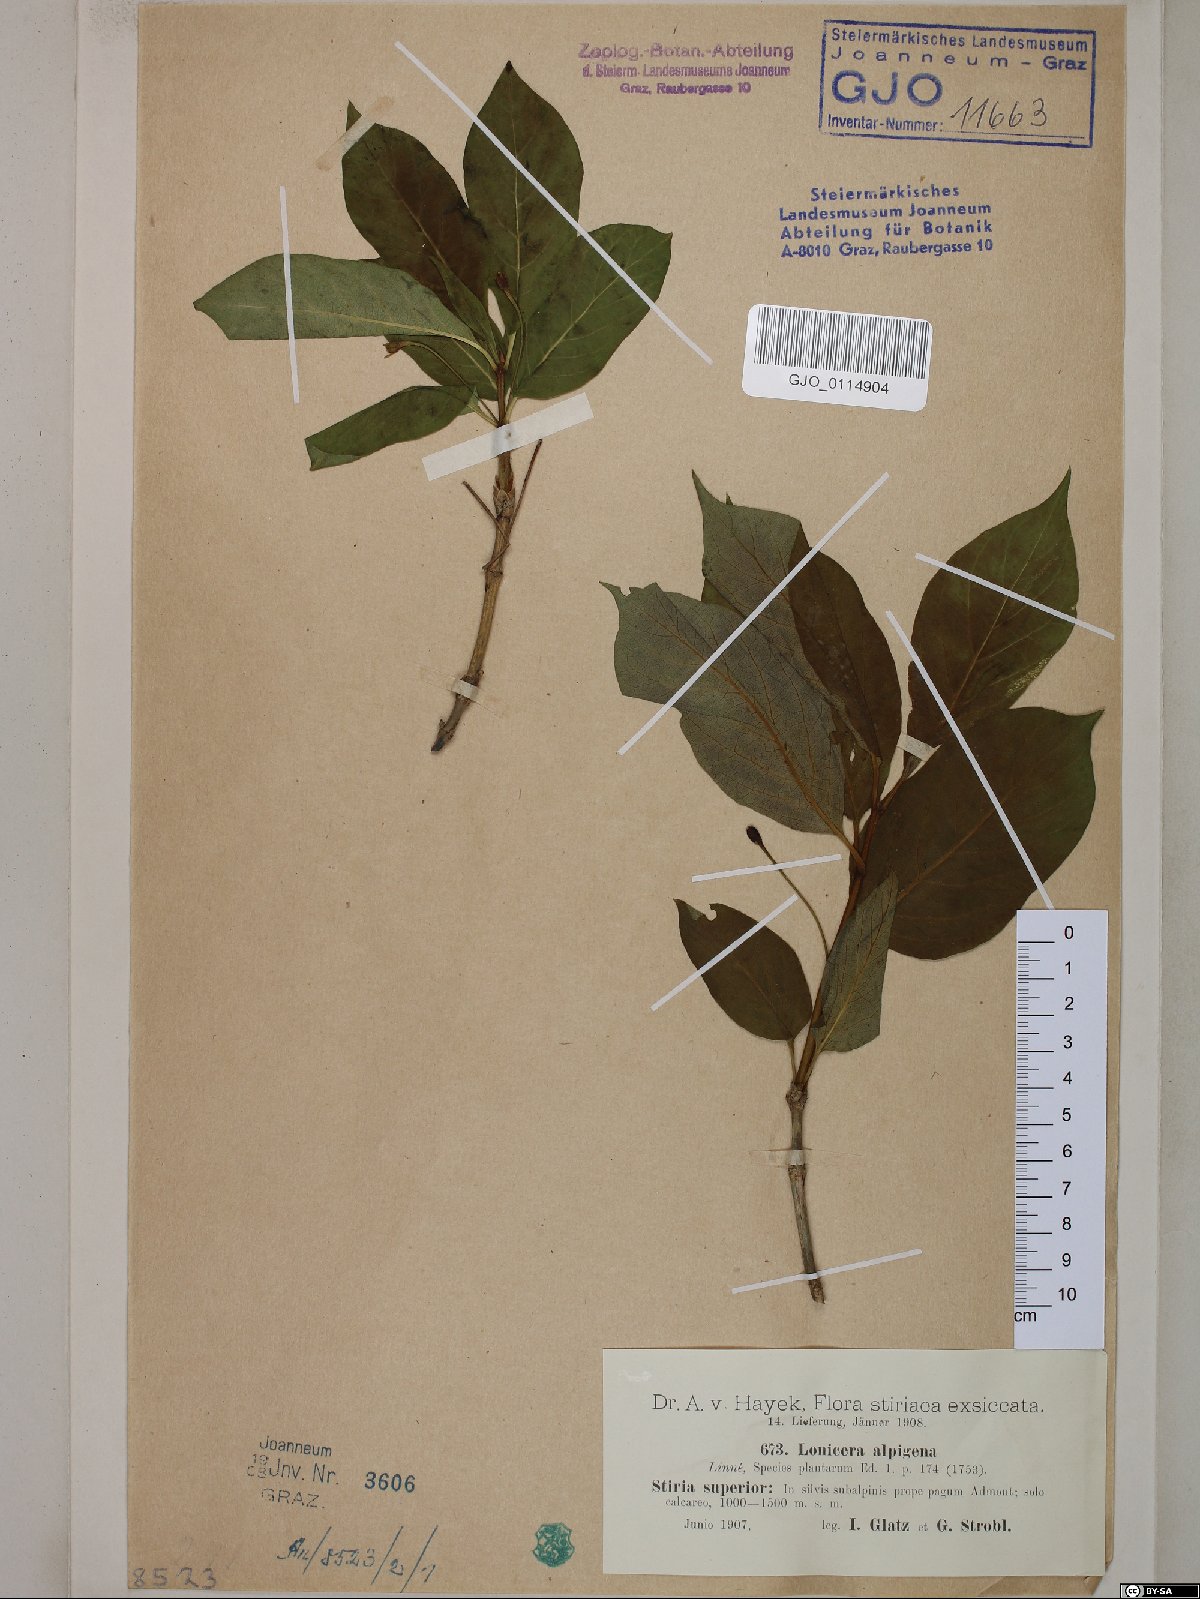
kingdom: Plantae
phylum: Tracheophyta
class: Magnoliopsida
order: Dipsacales
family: Caprifoliaceae
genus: Lonicera
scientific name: Lonicera alpigena
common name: Alpine honeysuckle
